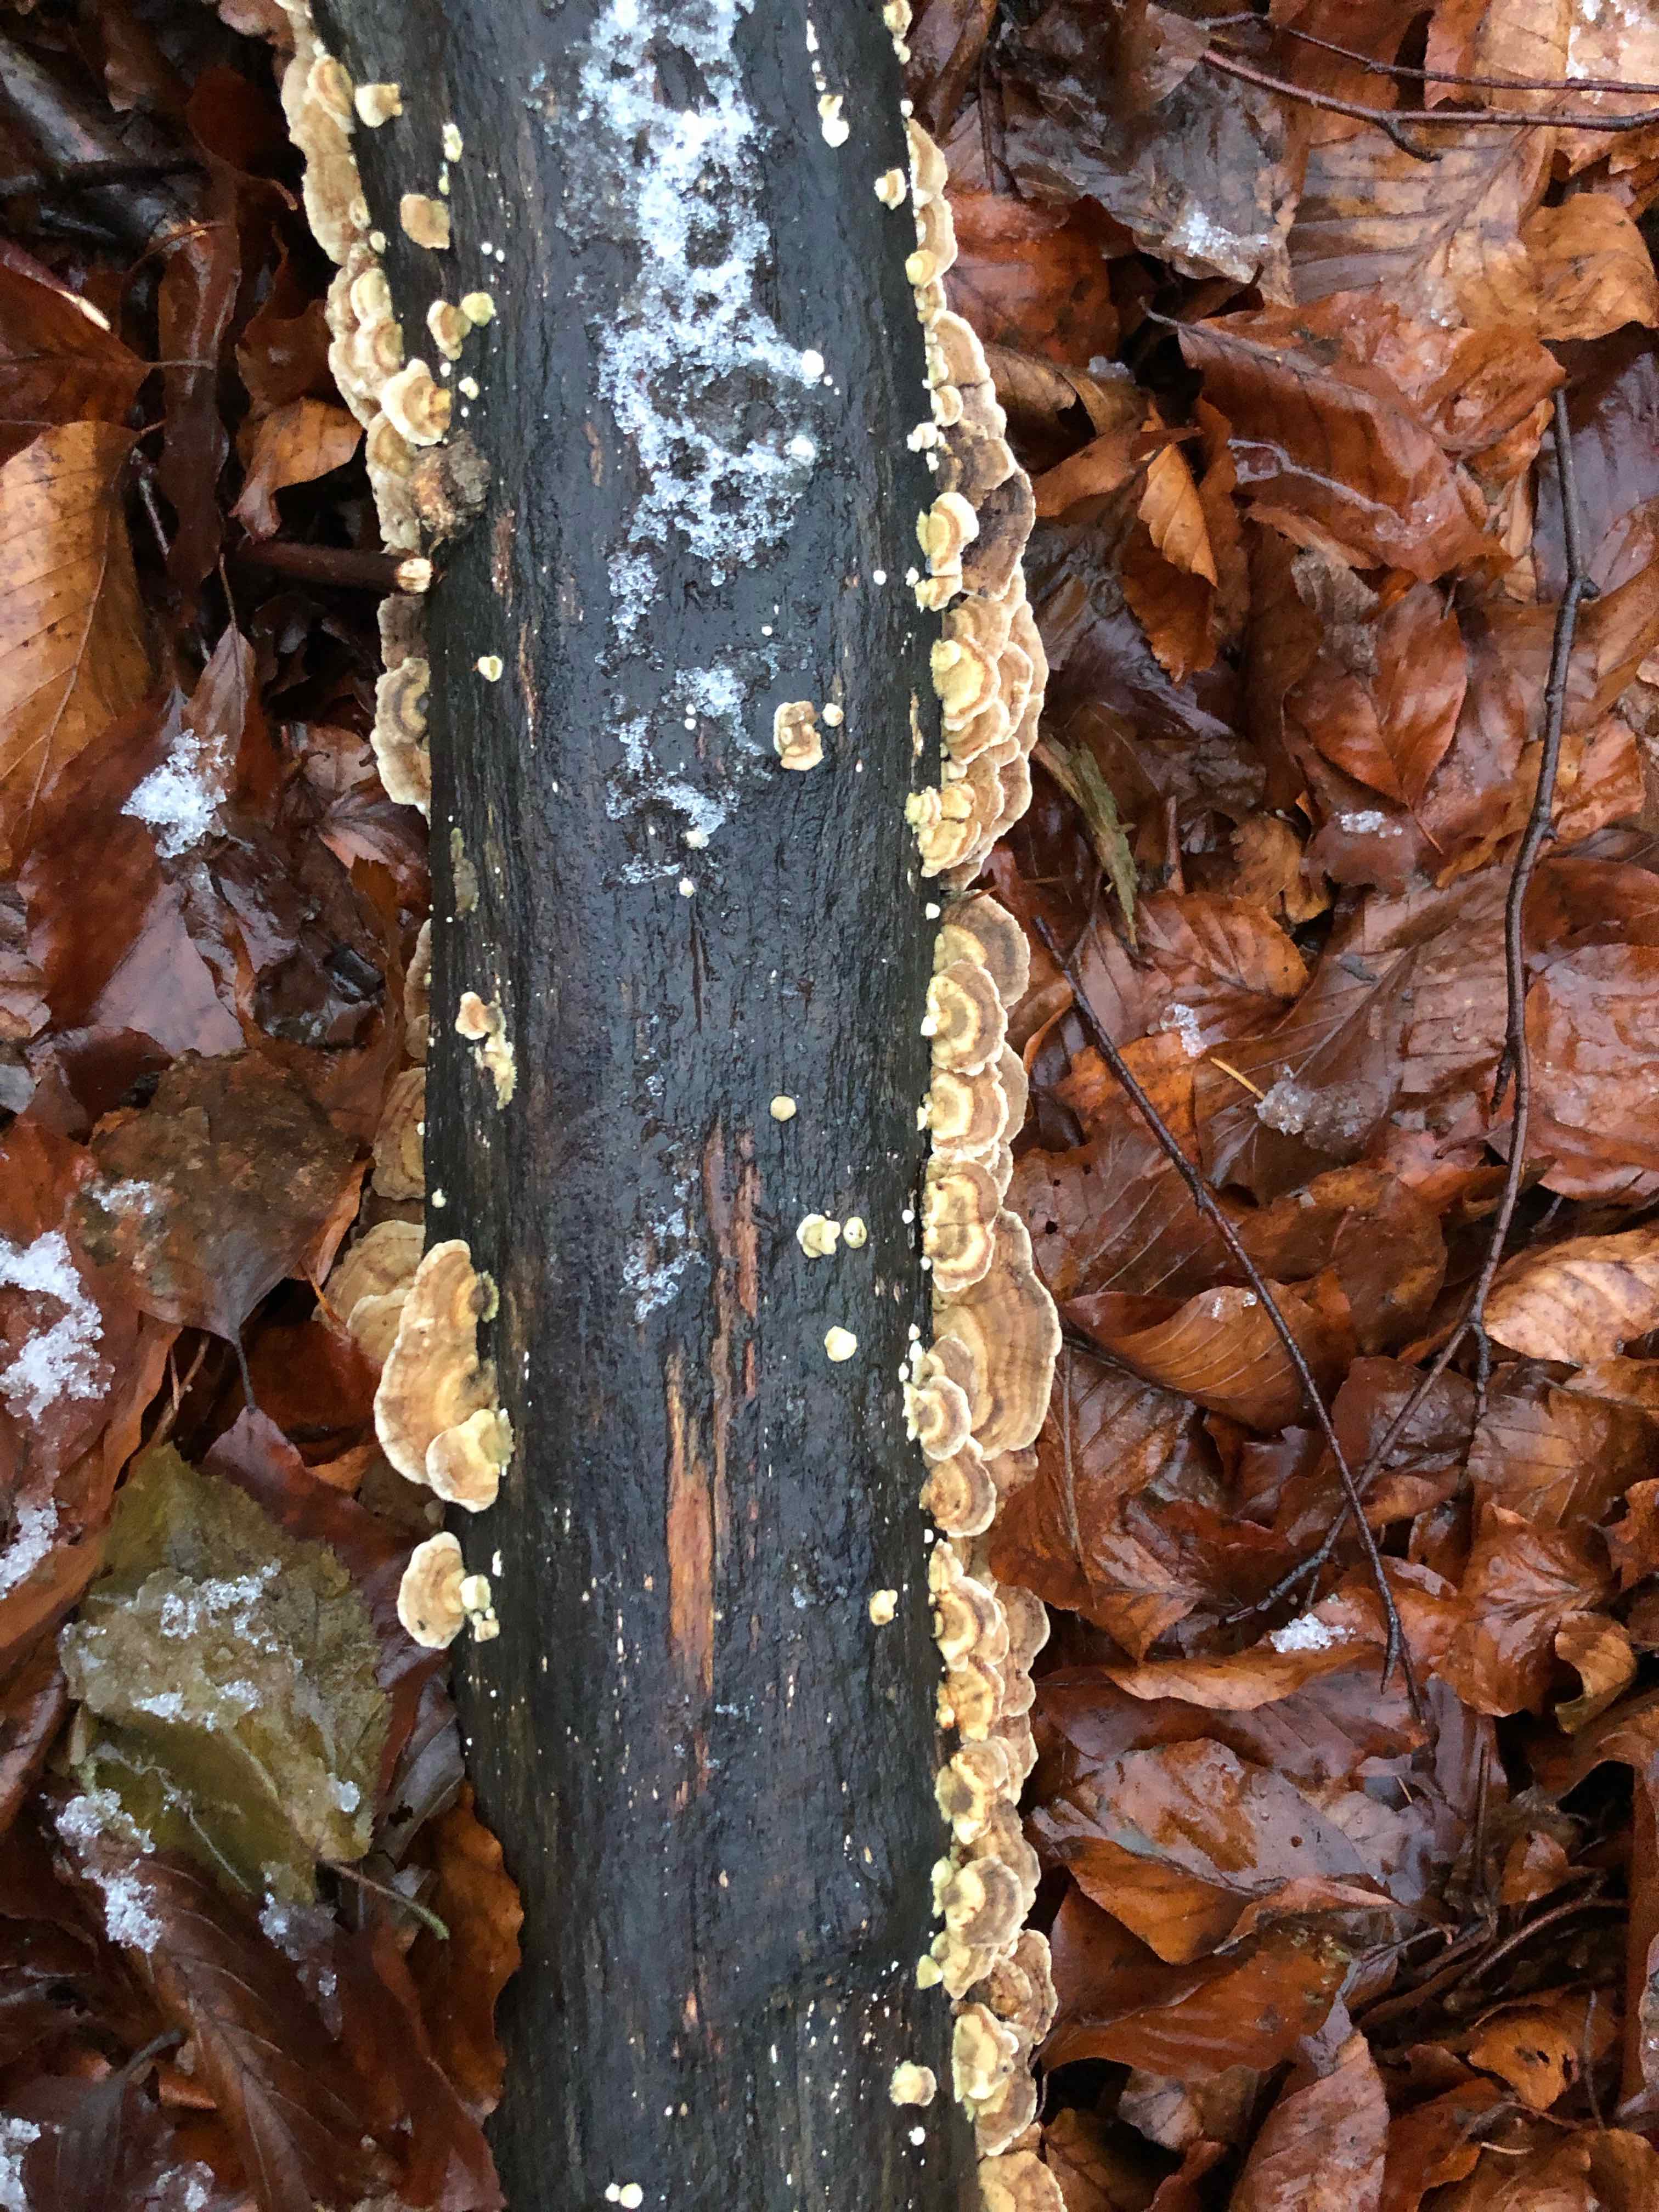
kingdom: Fungi
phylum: Basidiomycota
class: Agaricomycetes
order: Polyporales
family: Polyporaceae
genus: Trametes
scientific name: Trametes versicolor
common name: broget læderporesvamp
